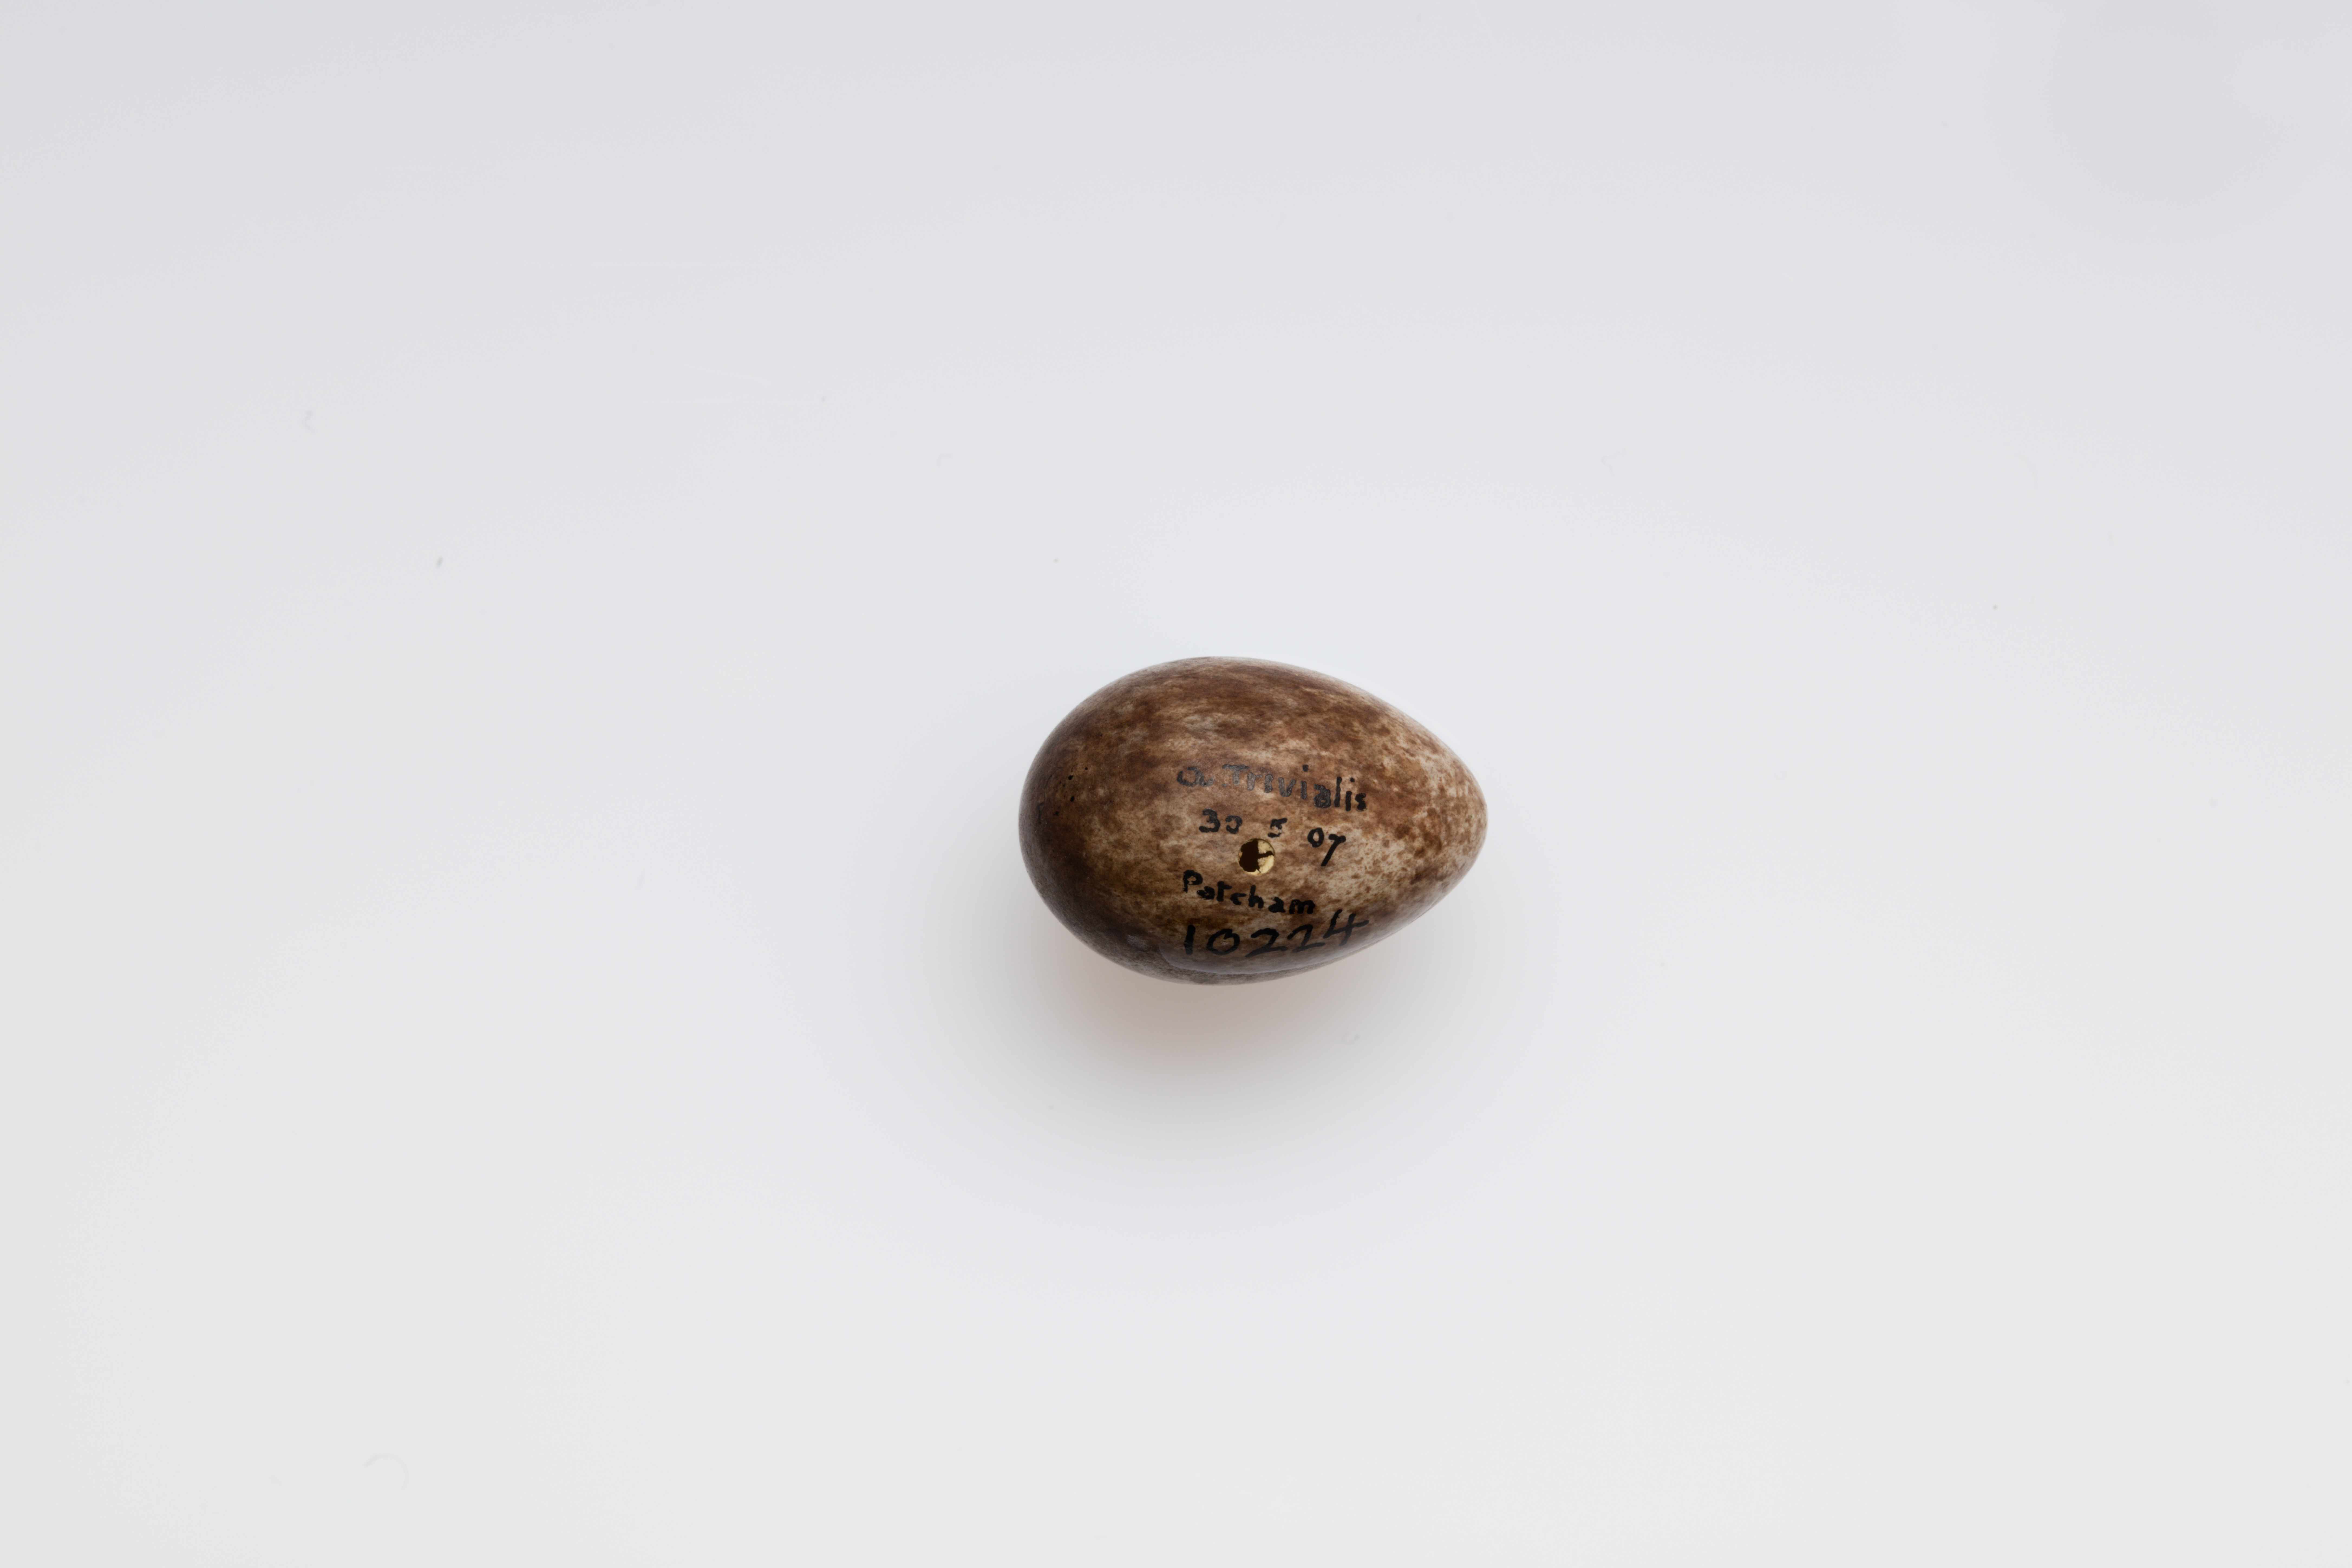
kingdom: Animalia
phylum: Chordata
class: Aves
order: Passeriformes
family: Motacillidae
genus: Anthus
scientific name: Anthus trivialis
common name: Tree pipit
